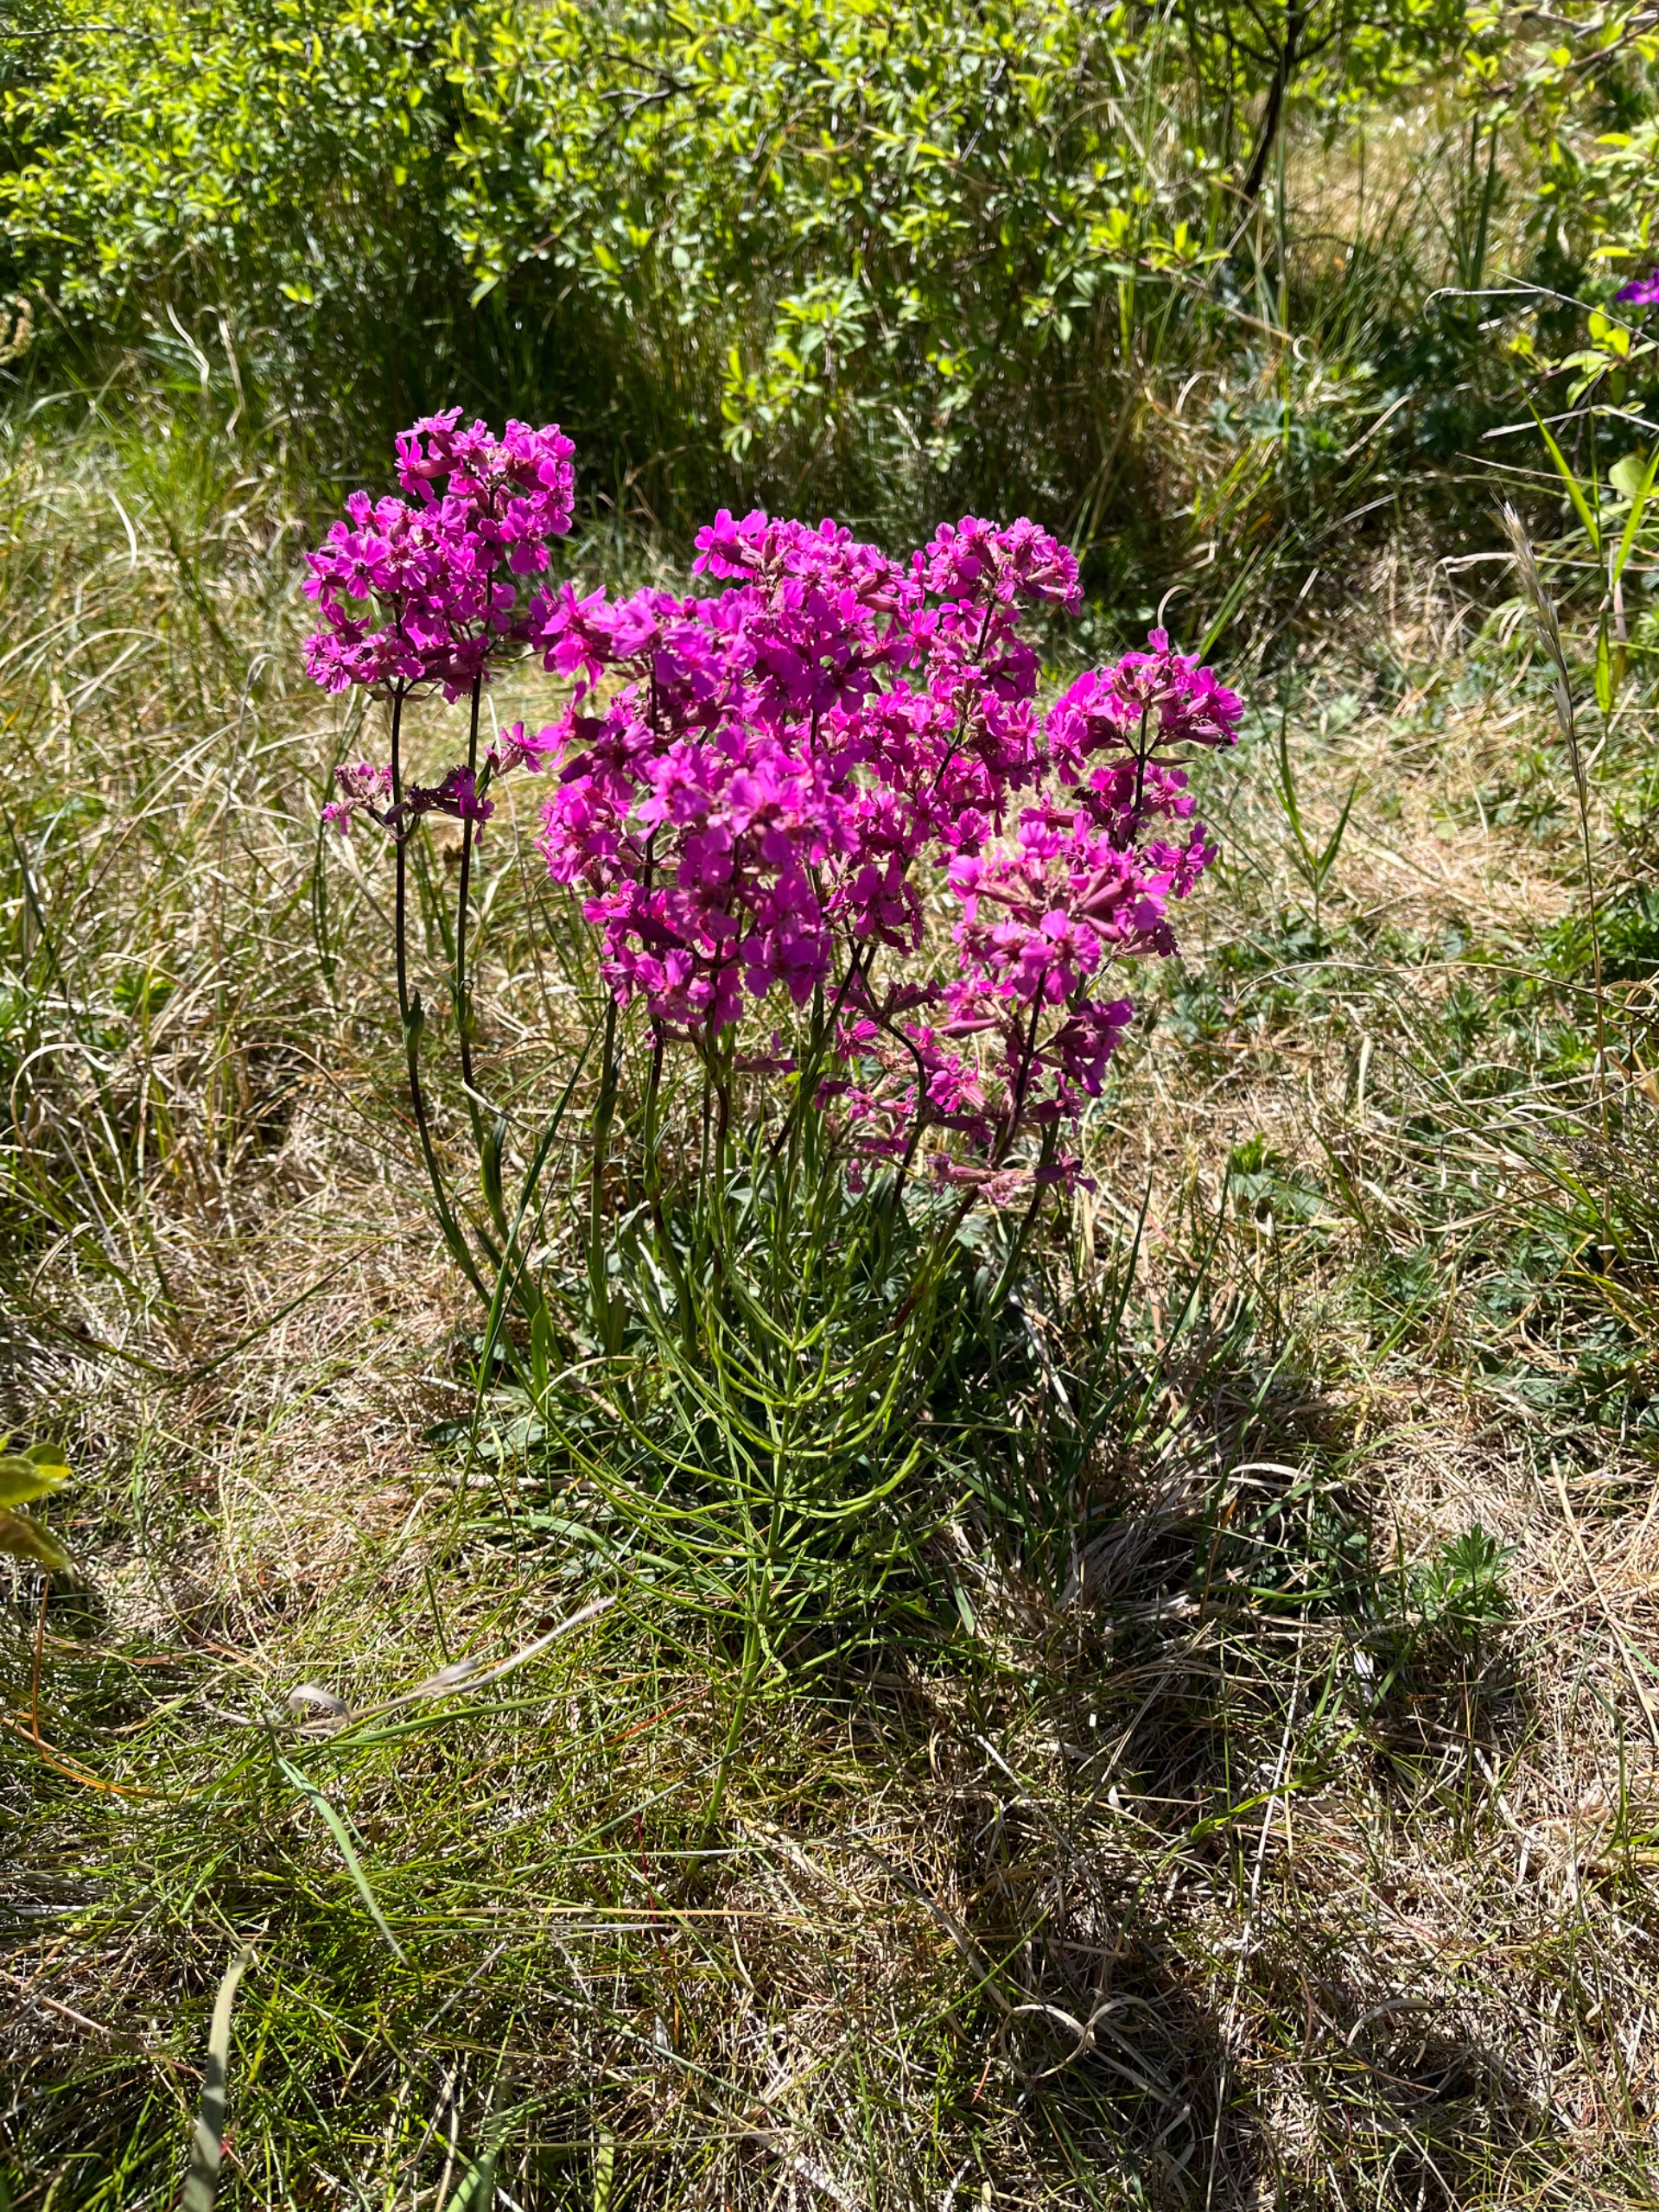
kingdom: Plantae
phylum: Tracheophyta
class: Magnoliopsida
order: Caryophyllales
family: Caryophyllaceae
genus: Viscaria
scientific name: Viscaria vulgaris
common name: Tjærenellike
